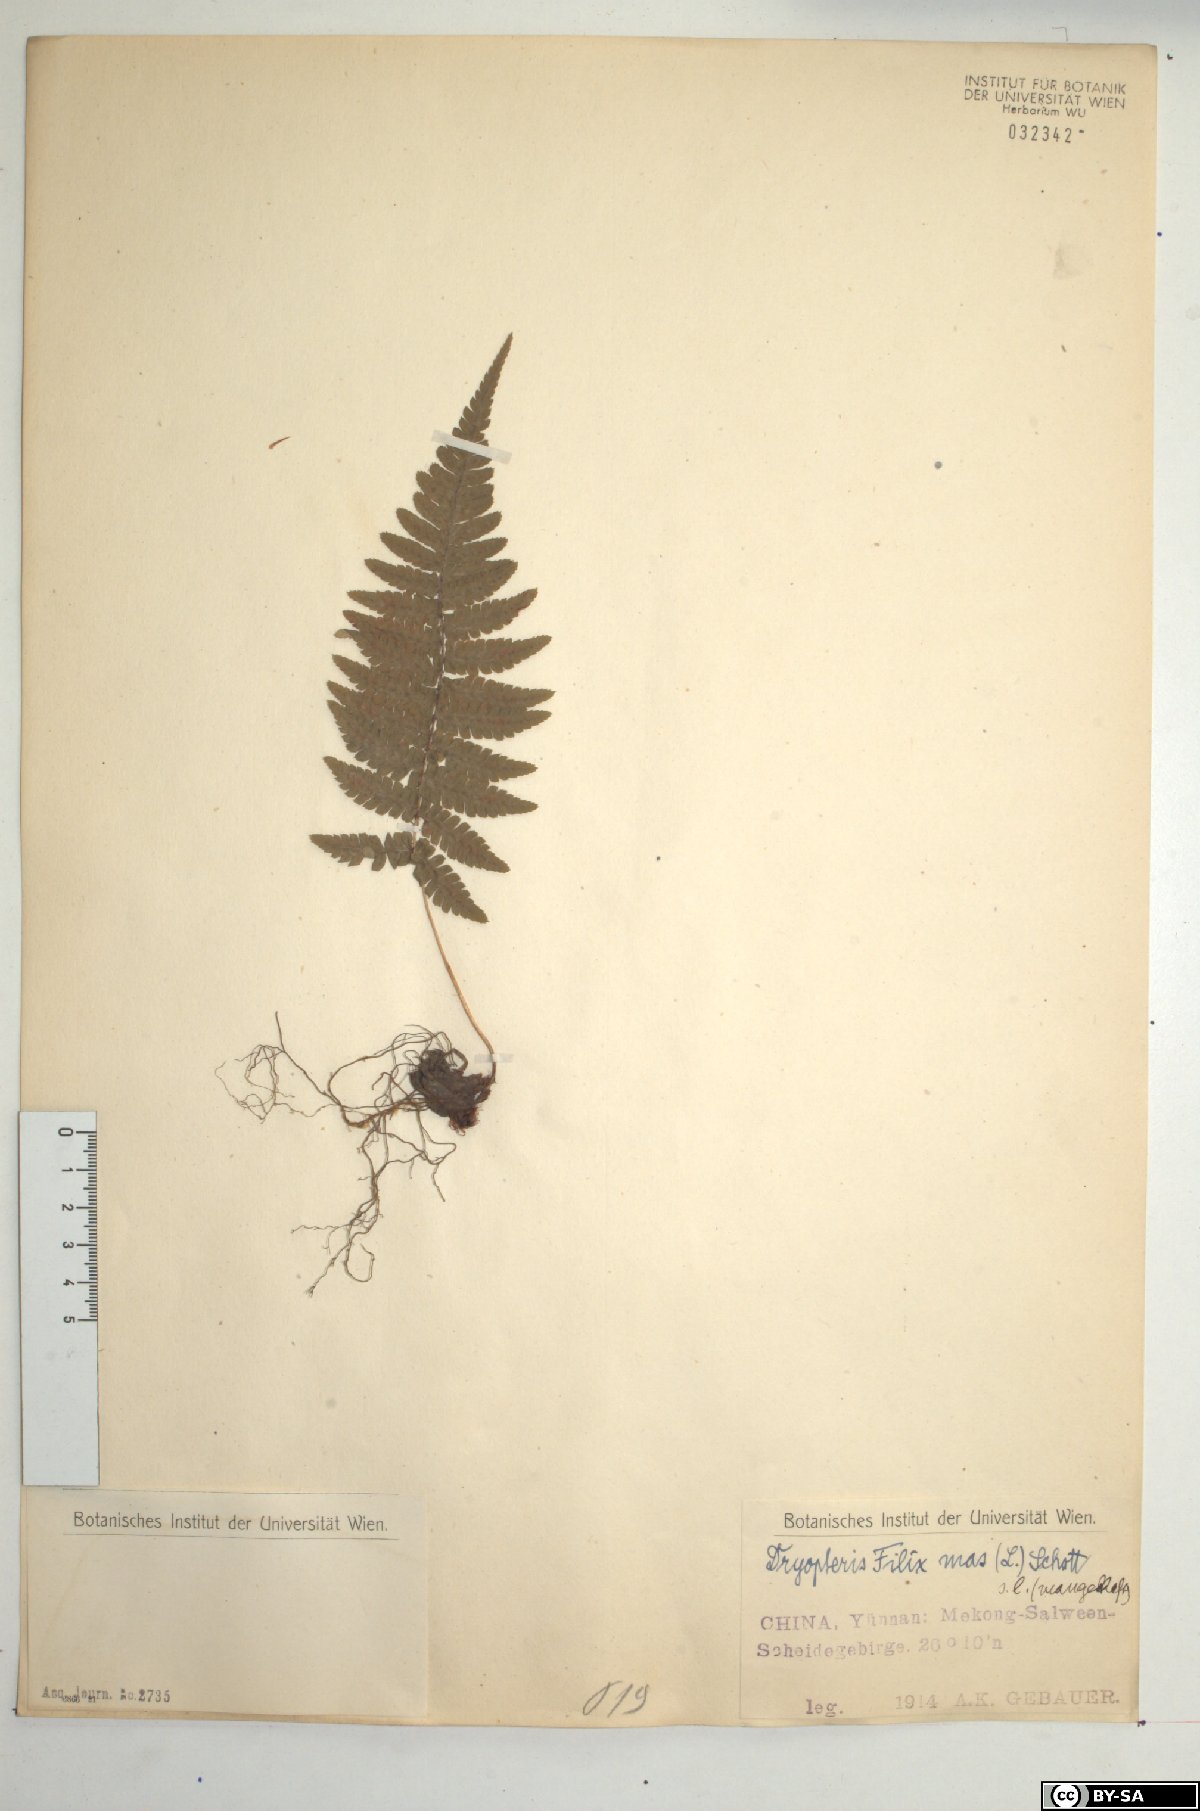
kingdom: Plantae
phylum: Tracheophyta
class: Polypodiopsida
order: Polypodiales
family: Dryopteridaceae
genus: Dryopteris
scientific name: Dryopteris filix-mas
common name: Male fern
